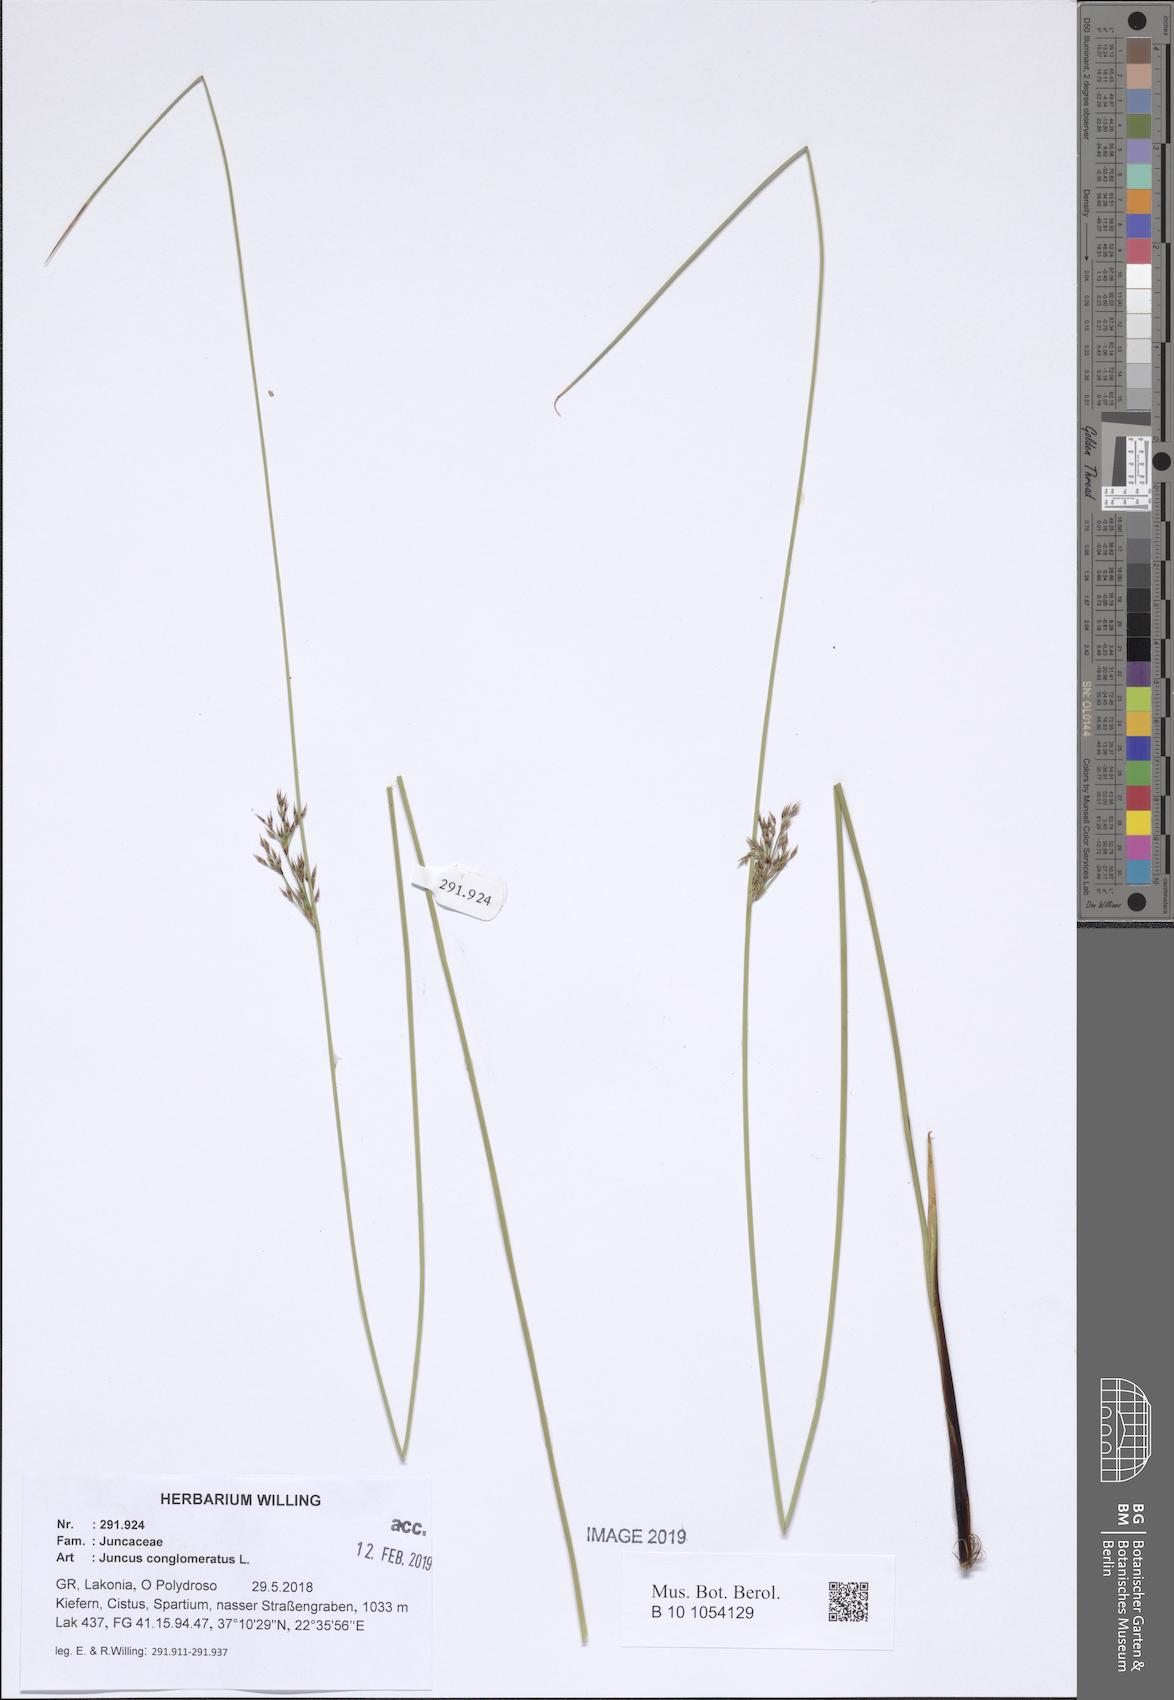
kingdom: Plantae
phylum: Tracheophyta
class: Liliopsida
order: Poales
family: Juncaceae
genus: Juncus
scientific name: Juncus conglomeratus
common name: Compact rush
